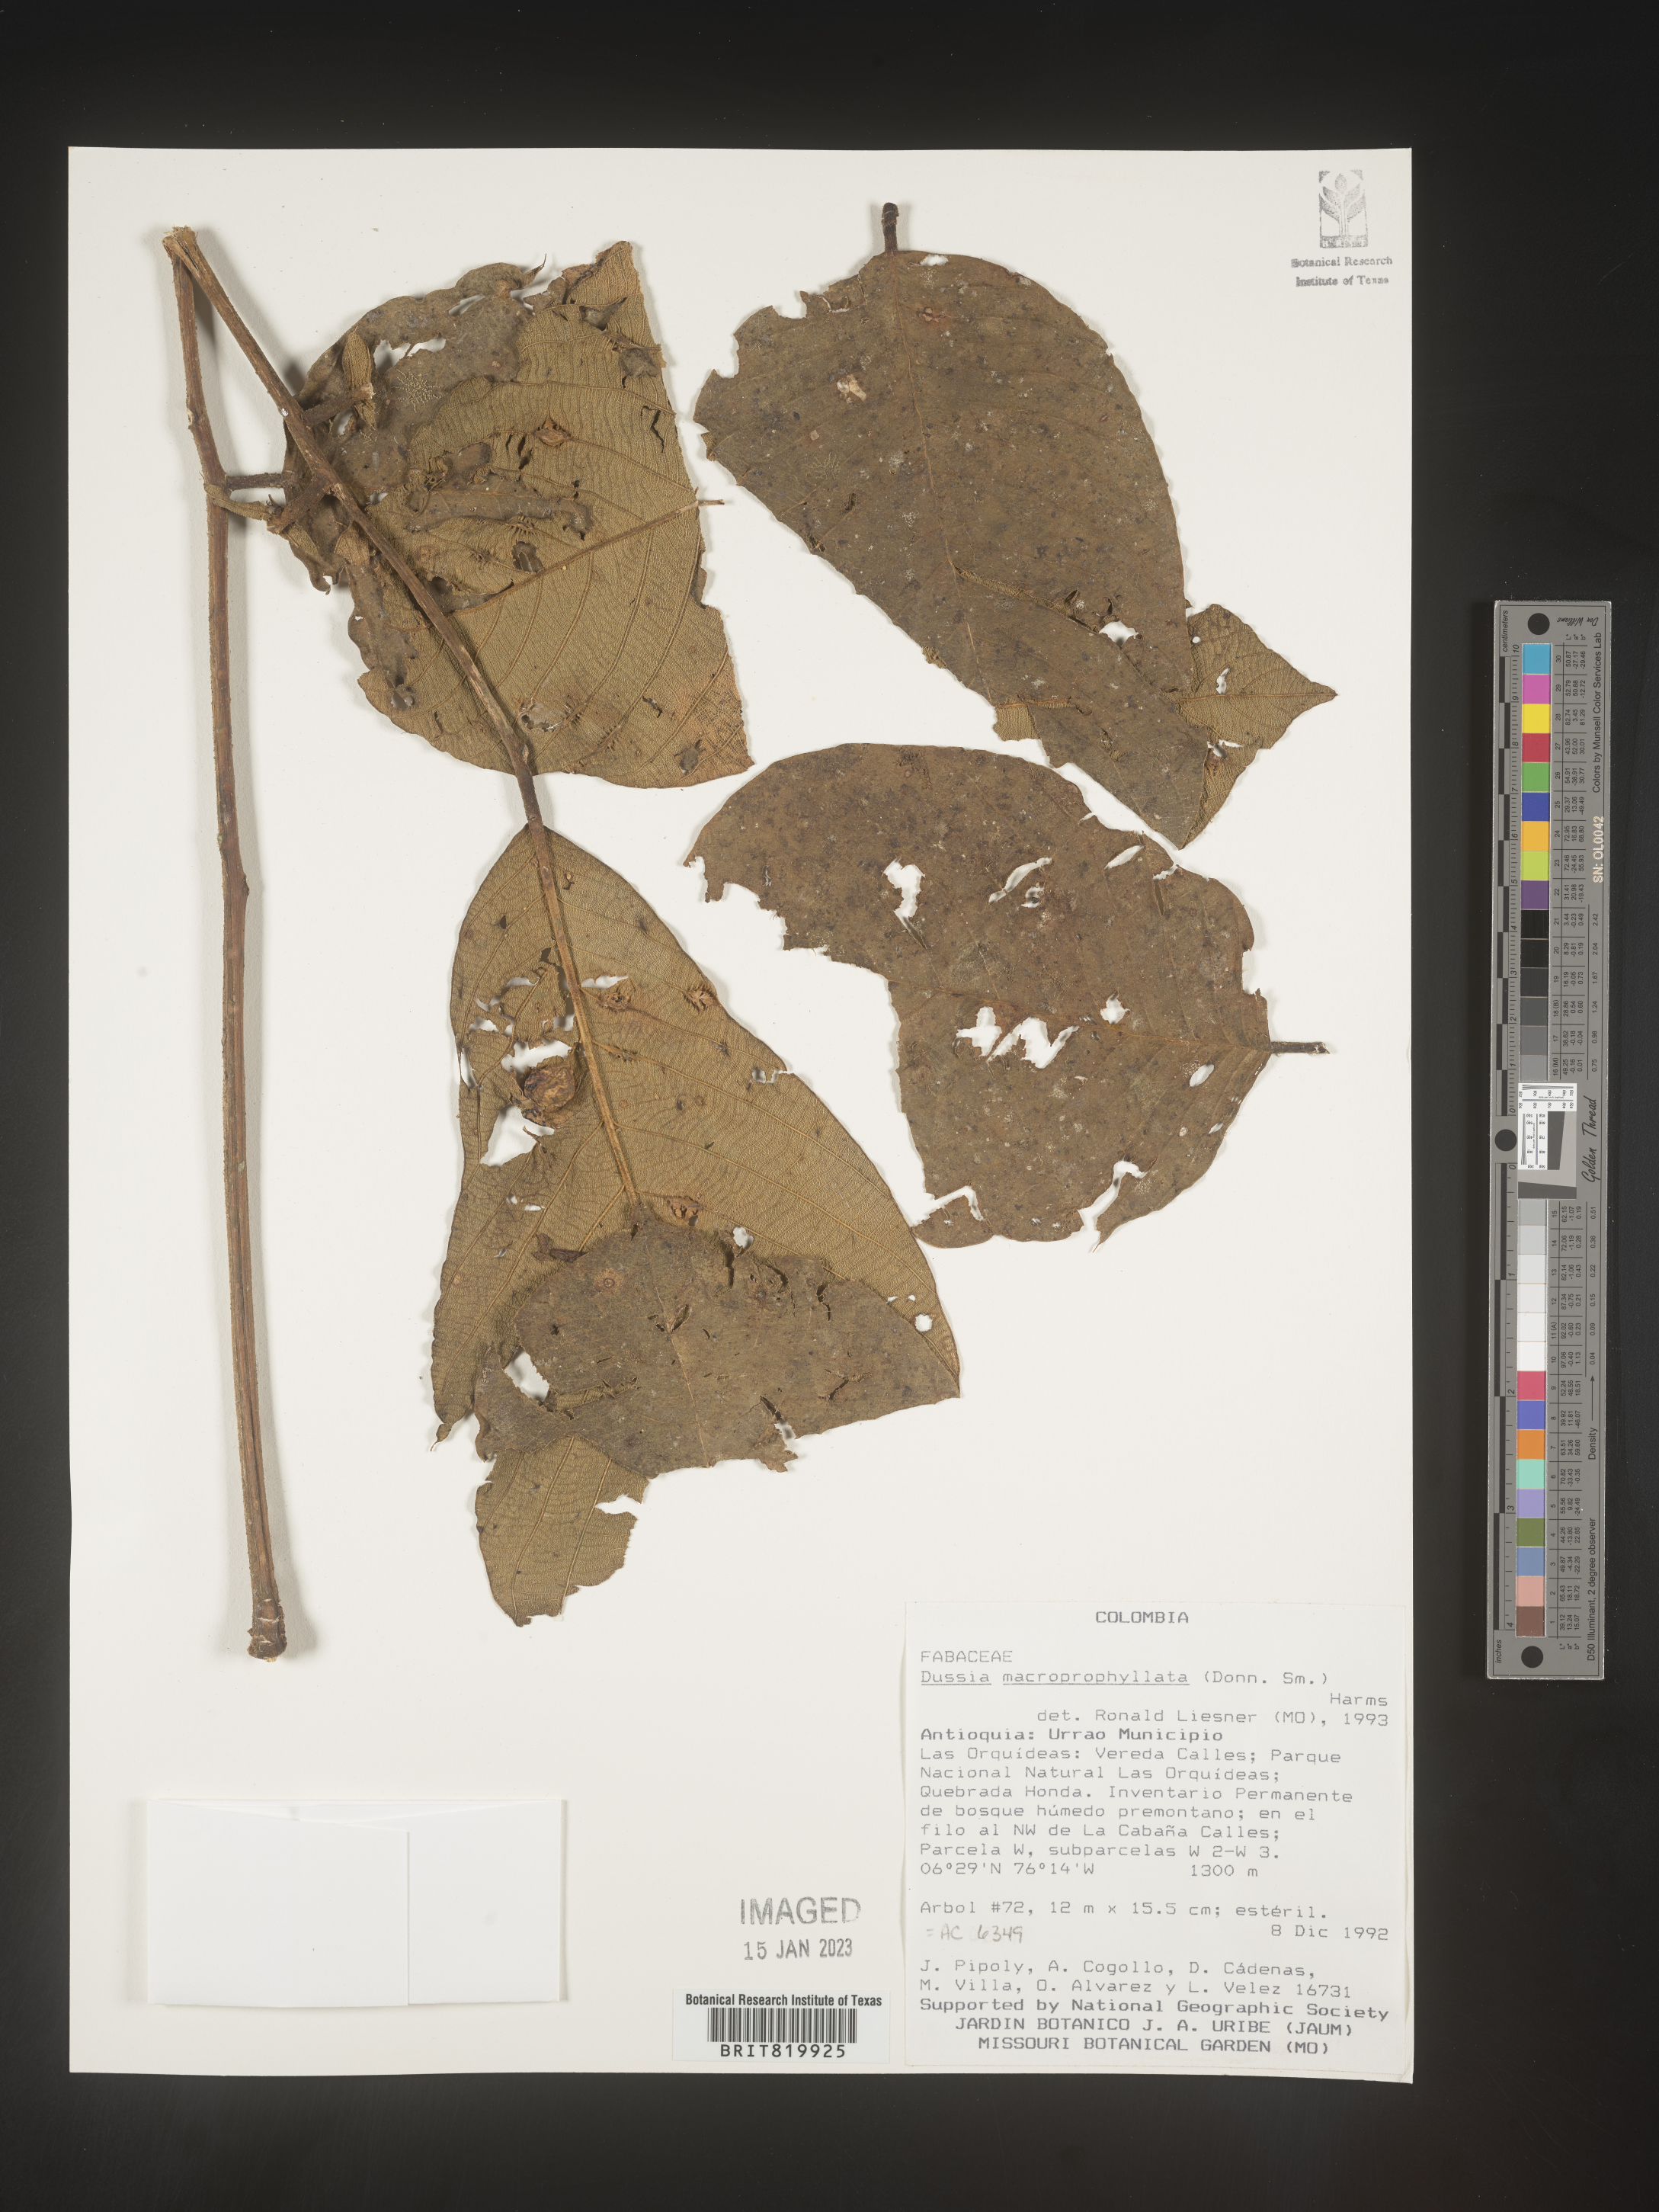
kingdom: Plantae
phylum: Tracheophyta
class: Magnoliopsida
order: Fabales
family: Fabaceae
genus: Dussia
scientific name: Dussia
